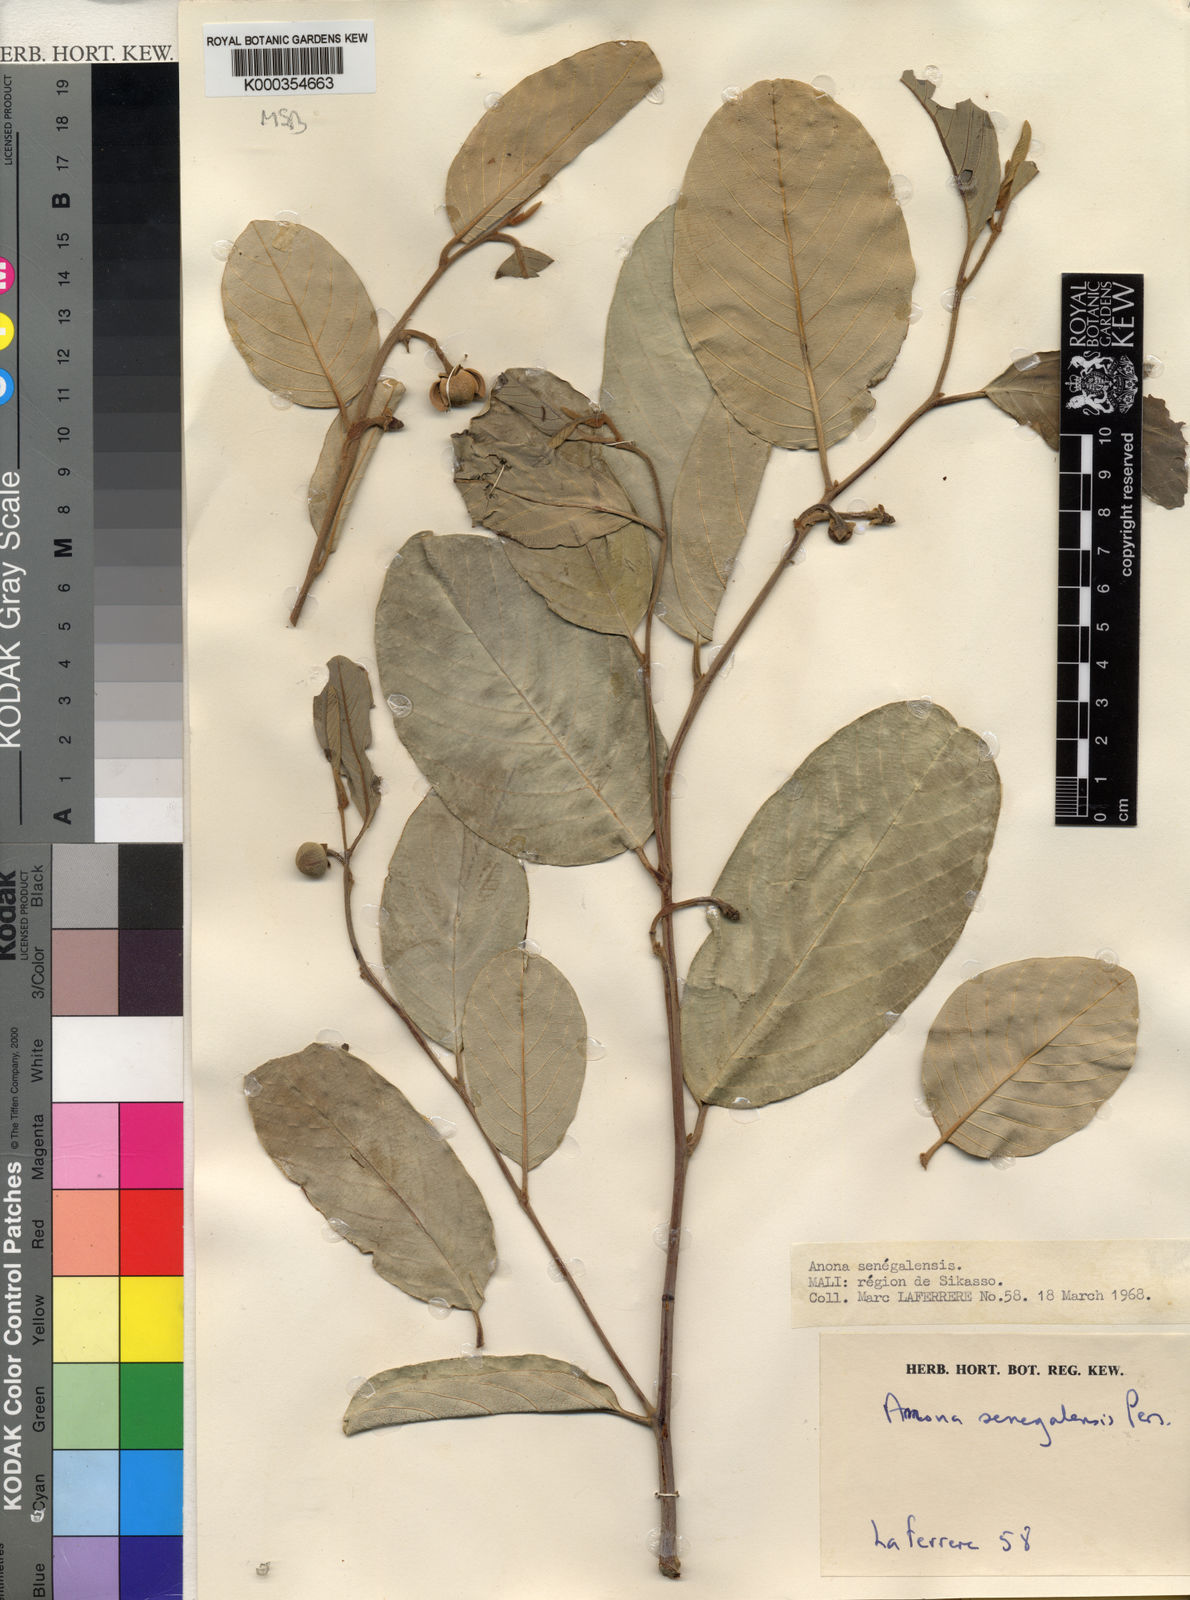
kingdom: Plantae
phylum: Tracheophyta
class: Magnoliopsida
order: Magnoliales
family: Annonaceae
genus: Annona
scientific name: Annona senegalensis
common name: Wild custard-apple
